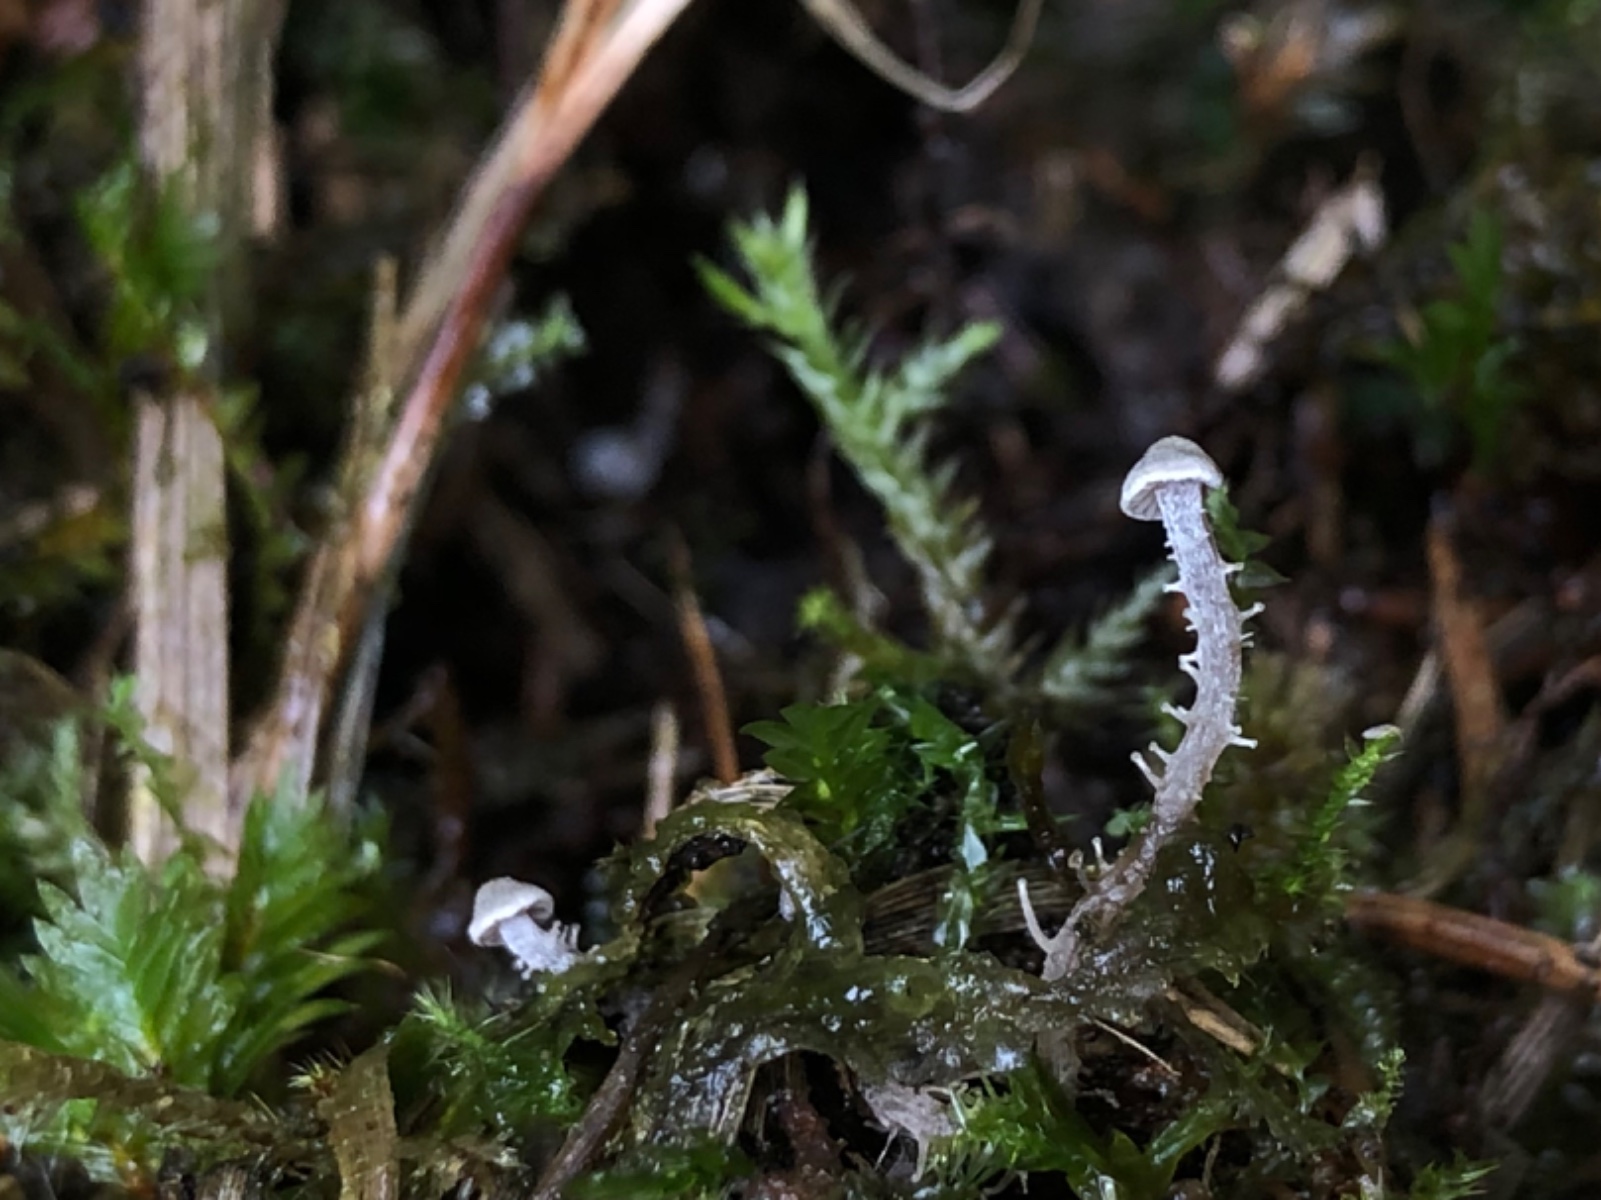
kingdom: Fungi
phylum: Basidiomycota
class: Agaricomycetes
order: Agaricales
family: Tricholomataceae
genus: Dendrocollybia
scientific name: Dendrocollybia racemosa
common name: grenet lighat
